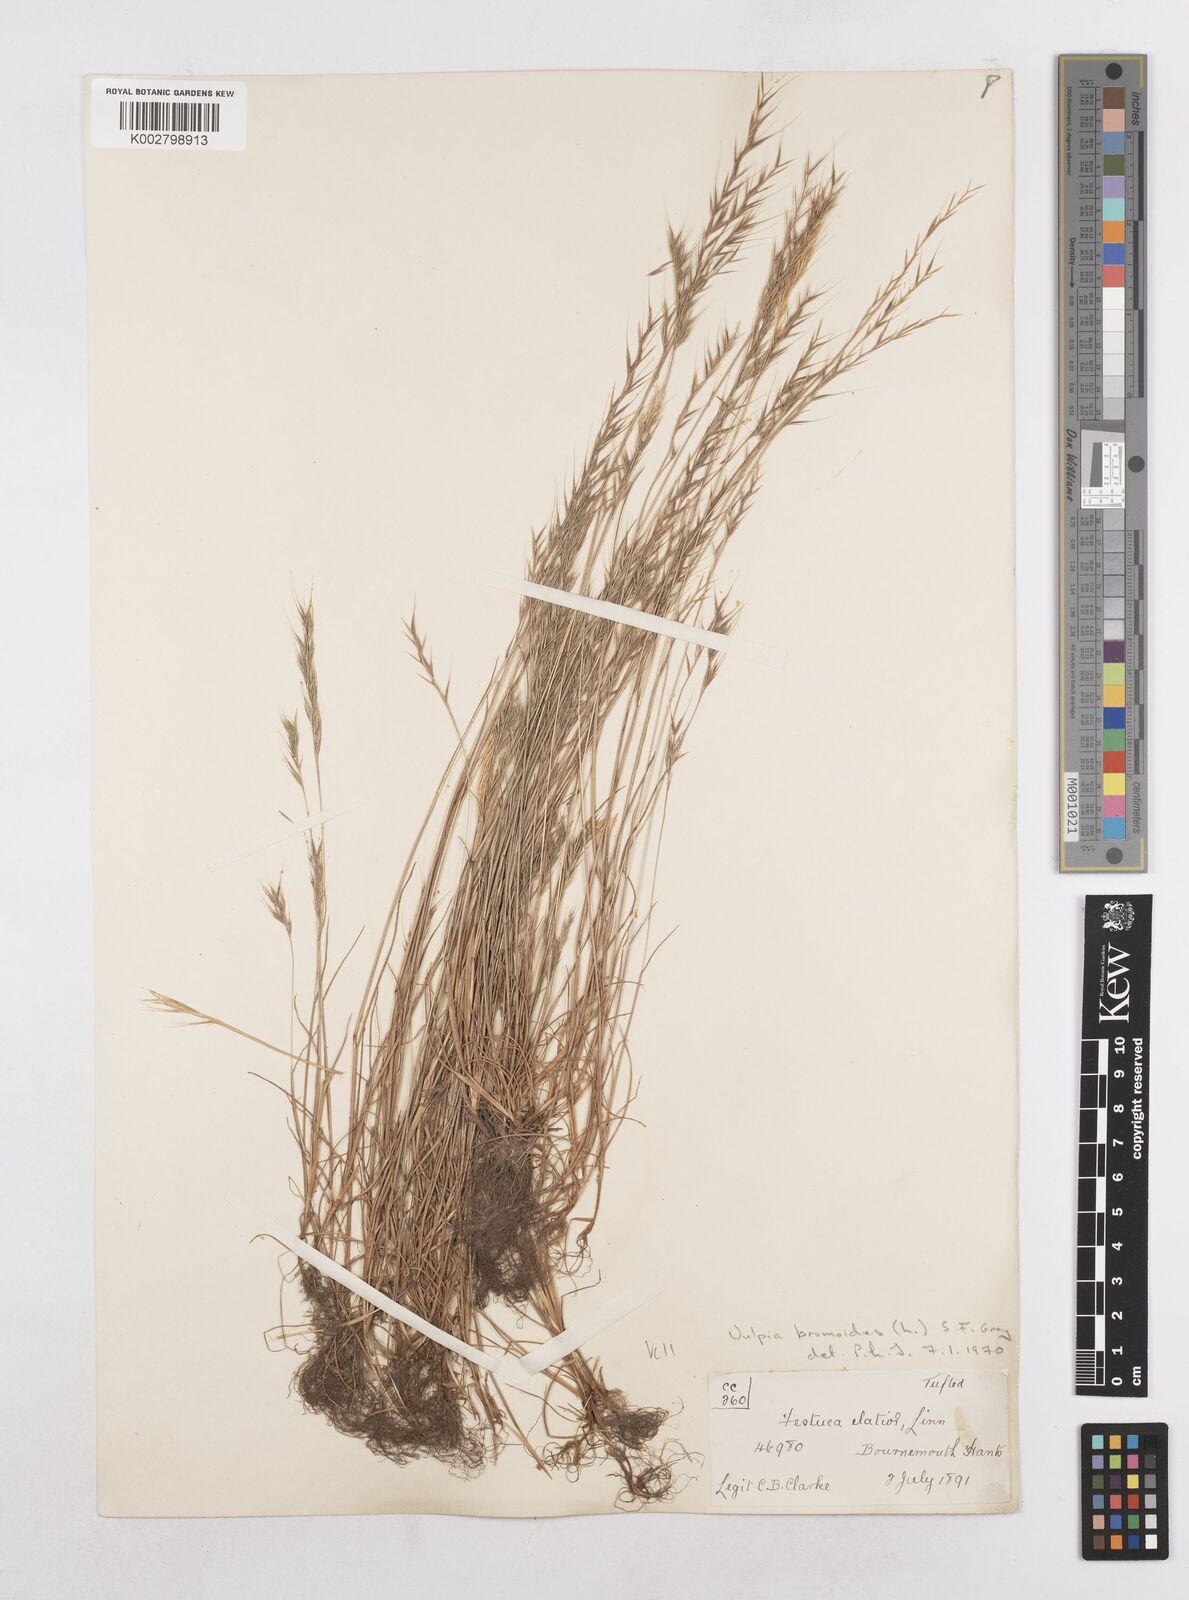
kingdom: Plantae
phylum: Tracheophyta
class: Liliopsida
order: Poales
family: Poaceae
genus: Festuca
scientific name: Festuca bromoides
